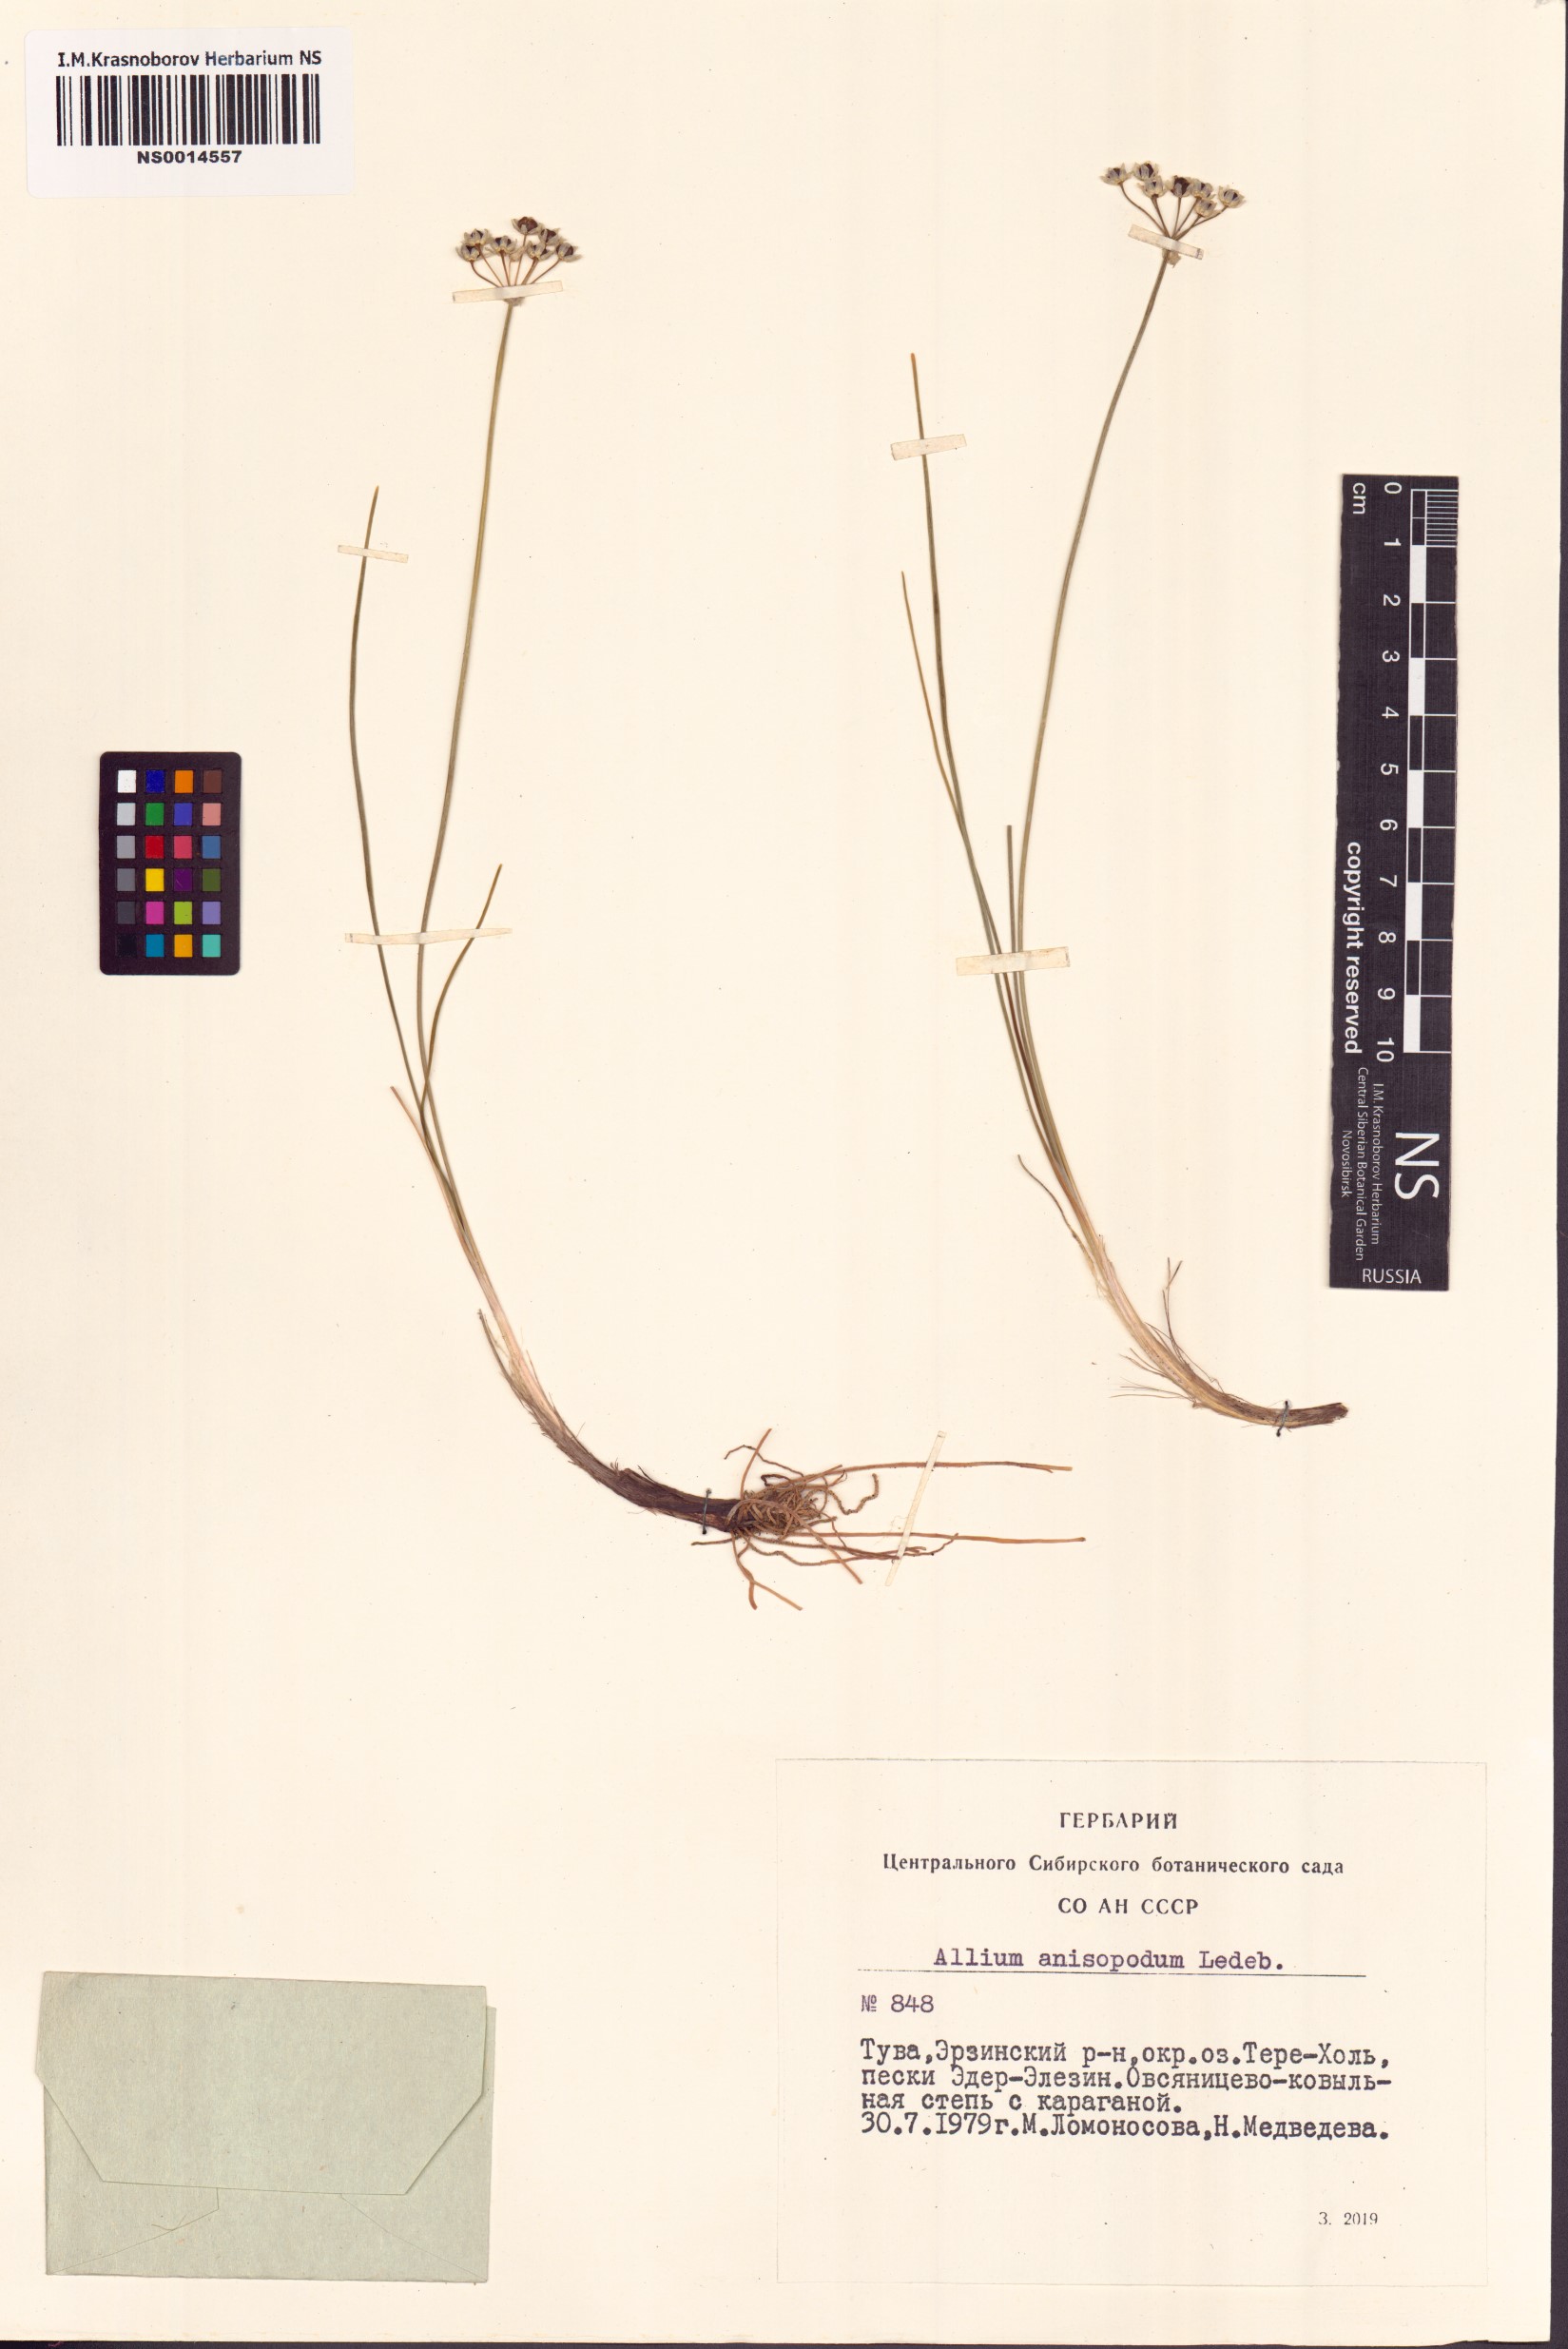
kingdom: Plantae
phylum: Tracheophyta
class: Liliopsida
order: Asparagales
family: Amaryllidaceae
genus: Allium
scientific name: Allium anisopodium
